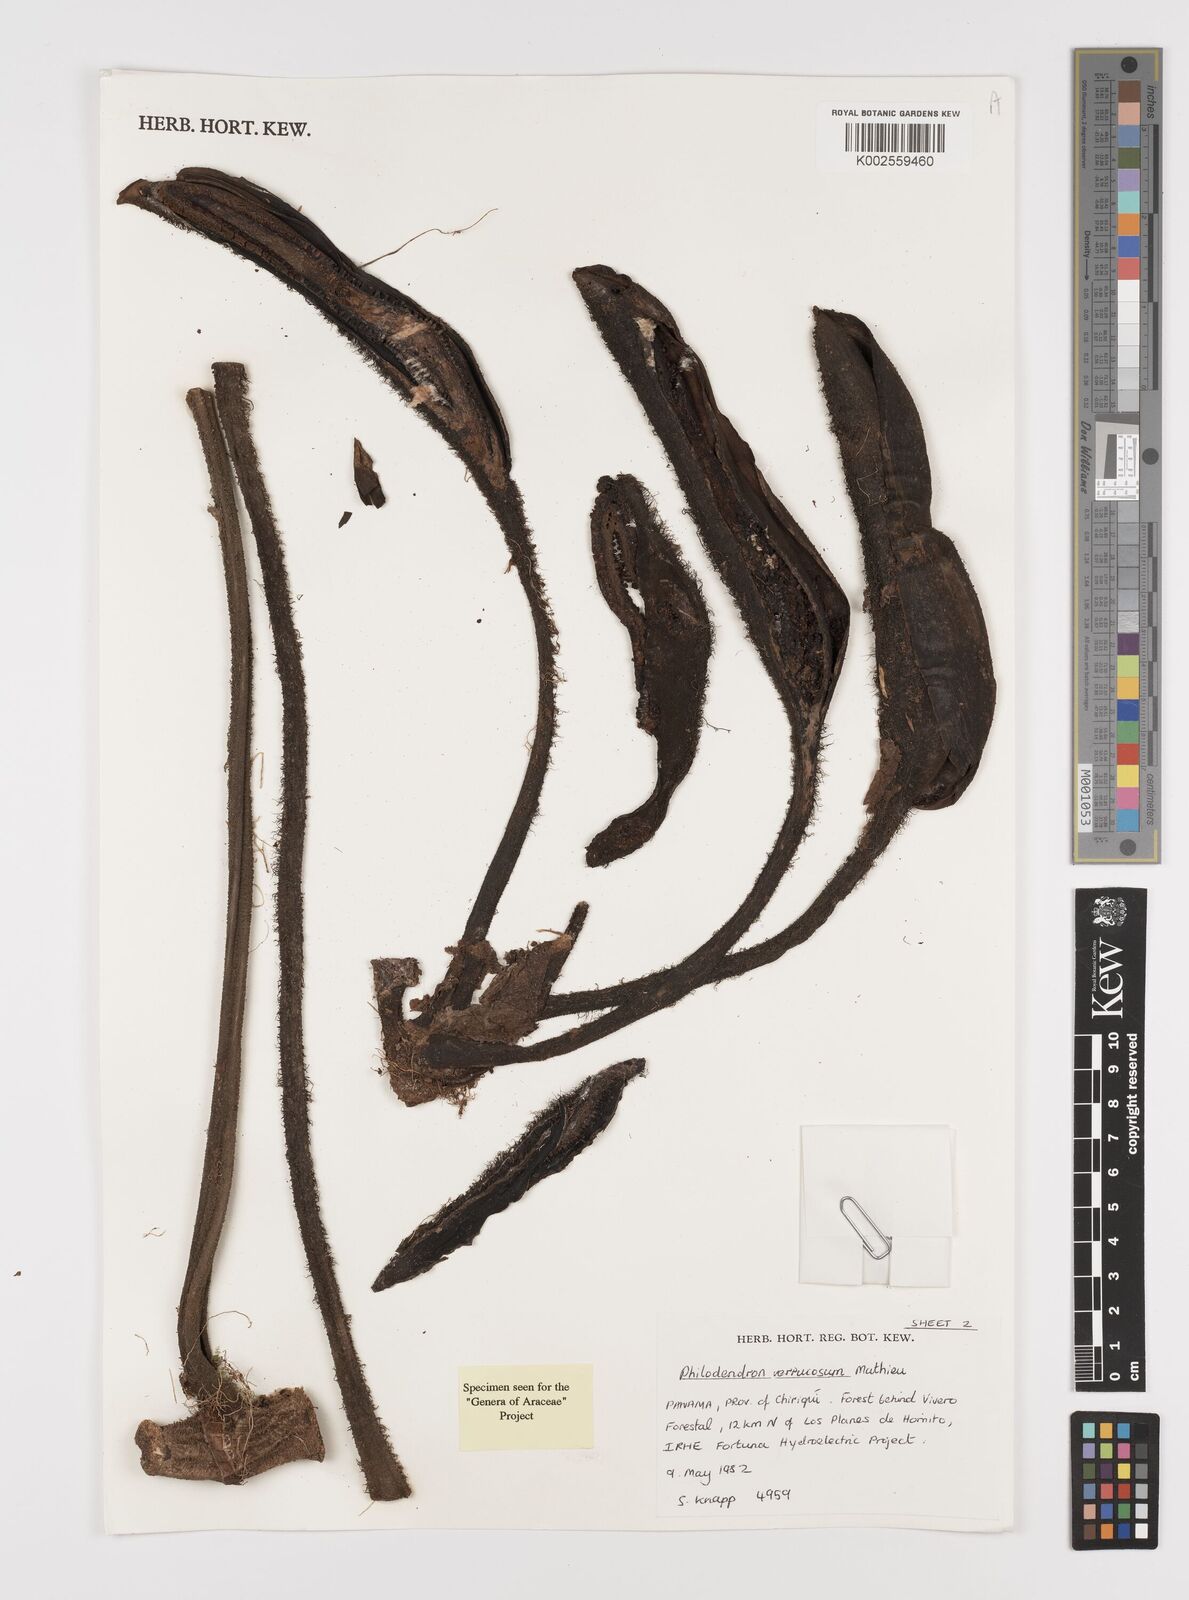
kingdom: Plantae
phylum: Tracheophyta
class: Liliopsida
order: Alismatales
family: Araceae
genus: Philodendron
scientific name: Philodendron verrucosum
